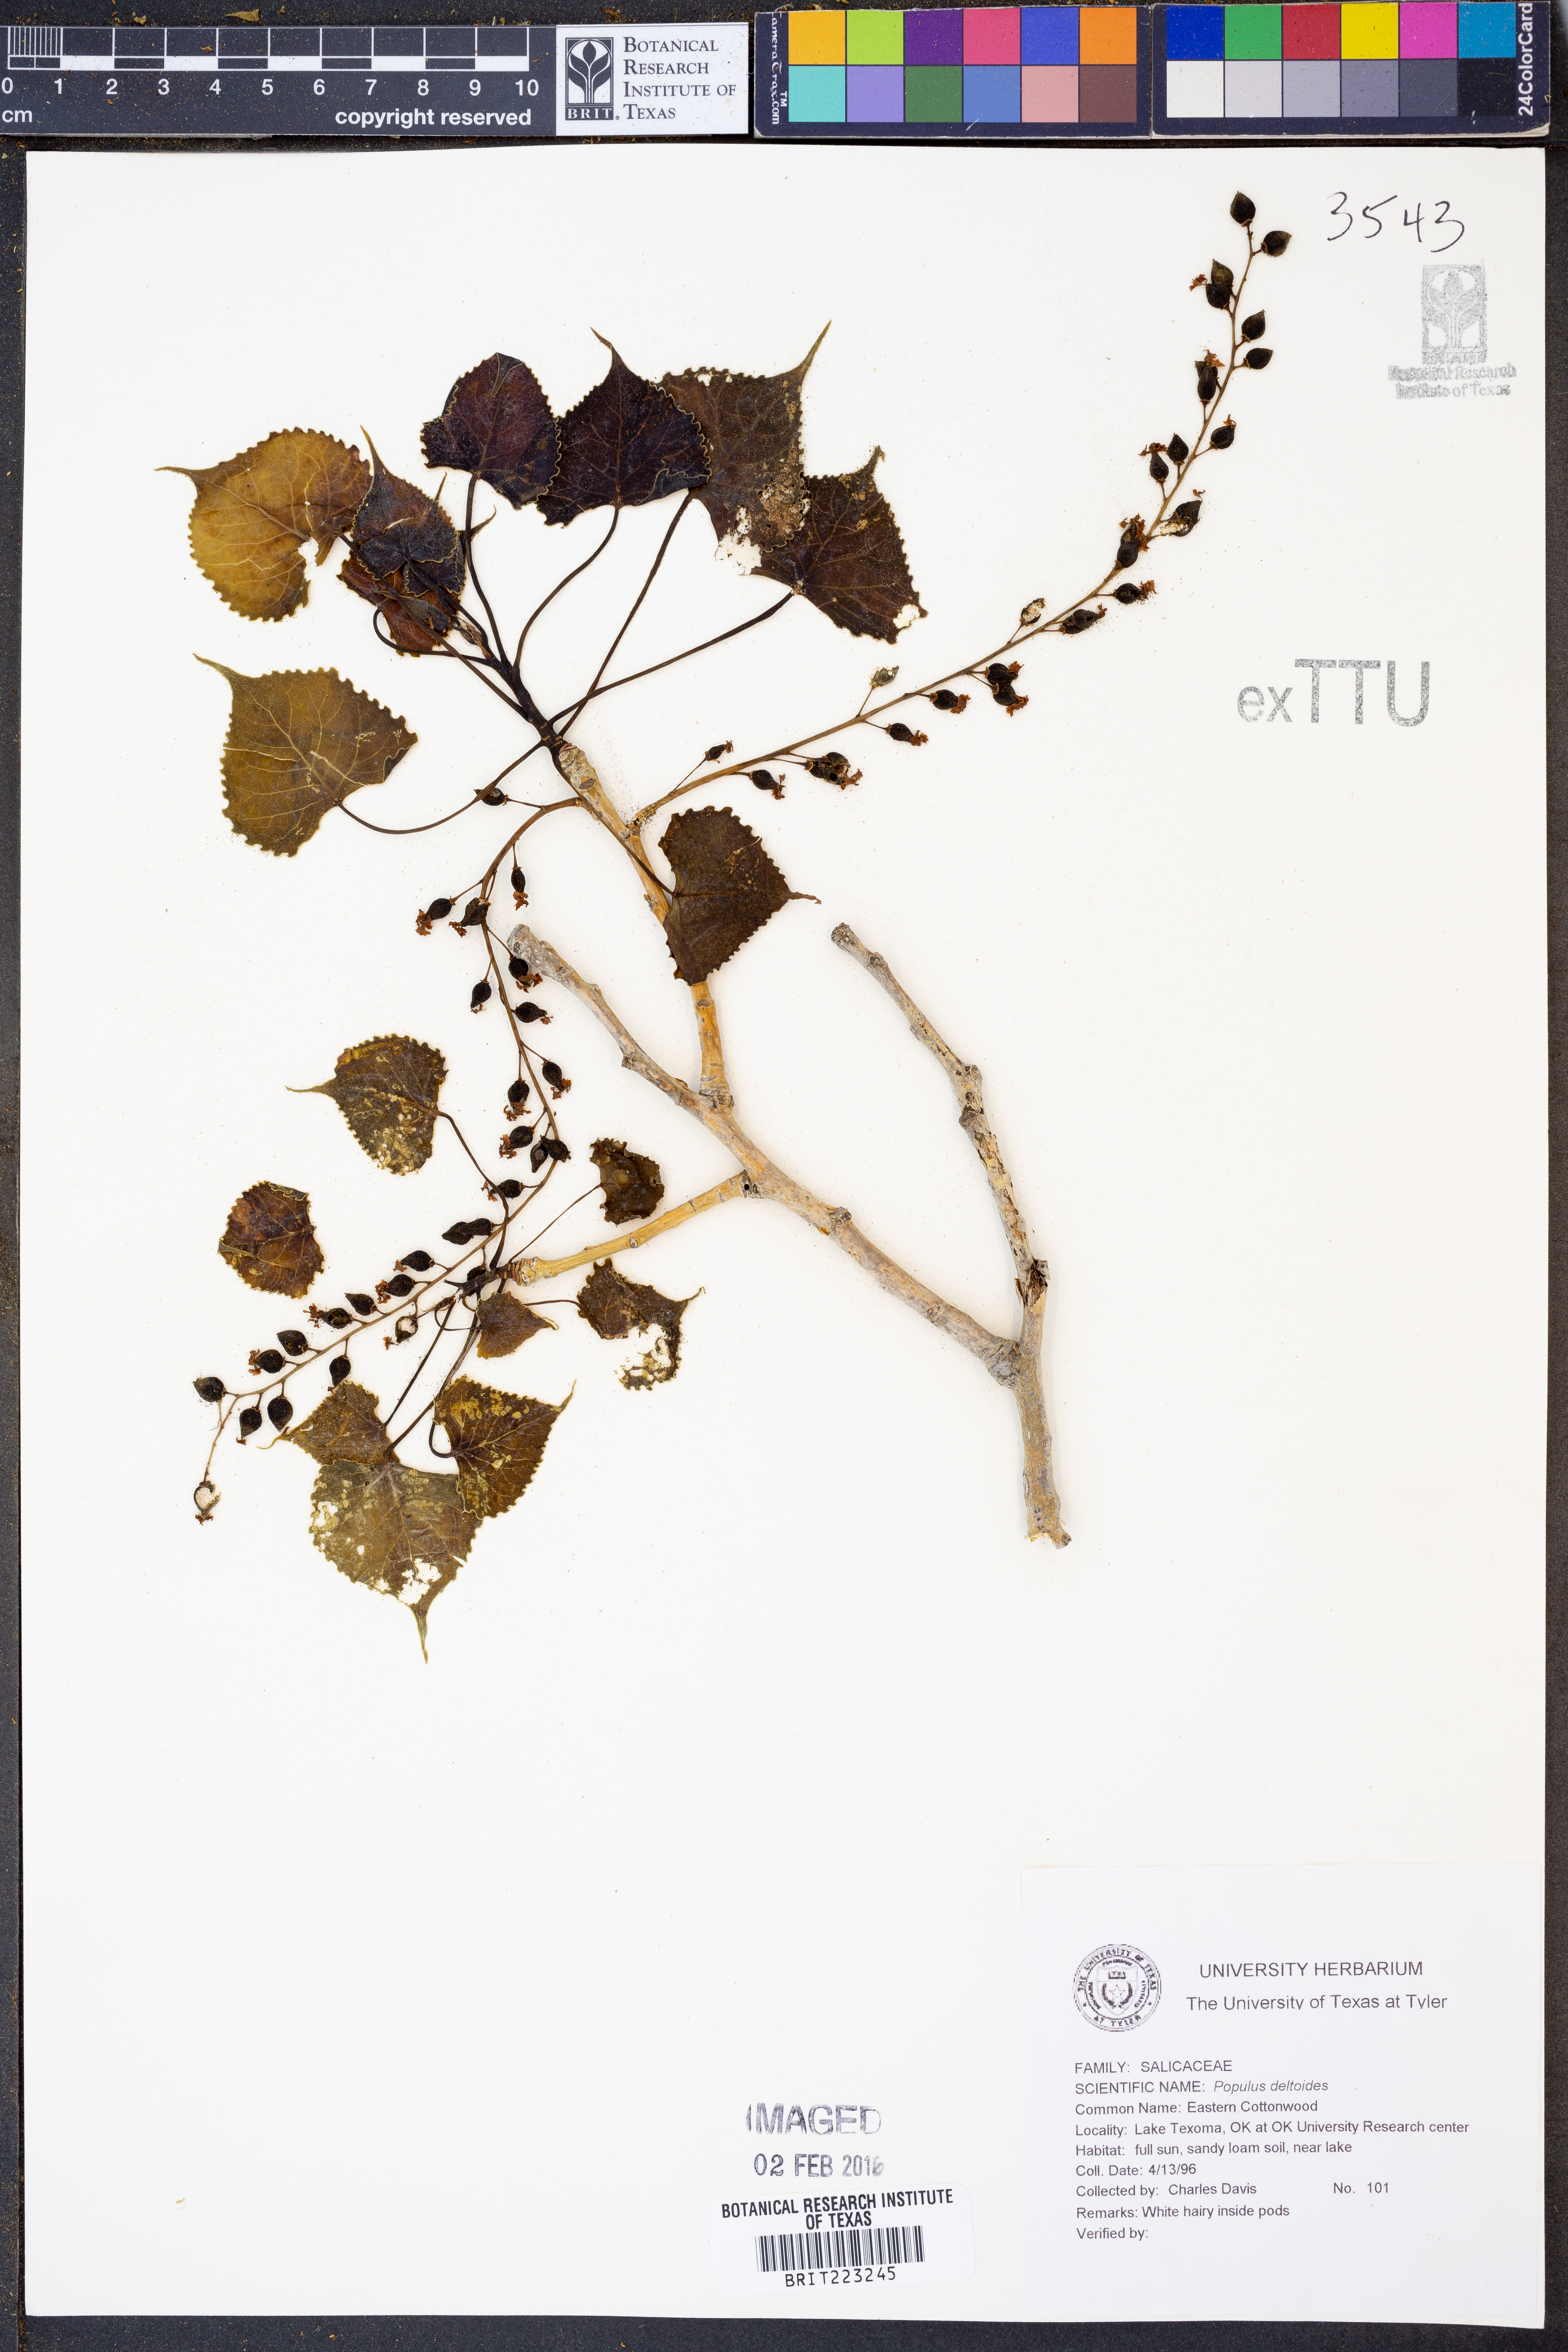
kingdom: Plantae
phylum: Tracheophyta
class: Magnoliopsida
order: Malpighiales
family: Salicaceae
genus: Populus
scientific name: Populus deltoides
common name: Eastern cottonwood
